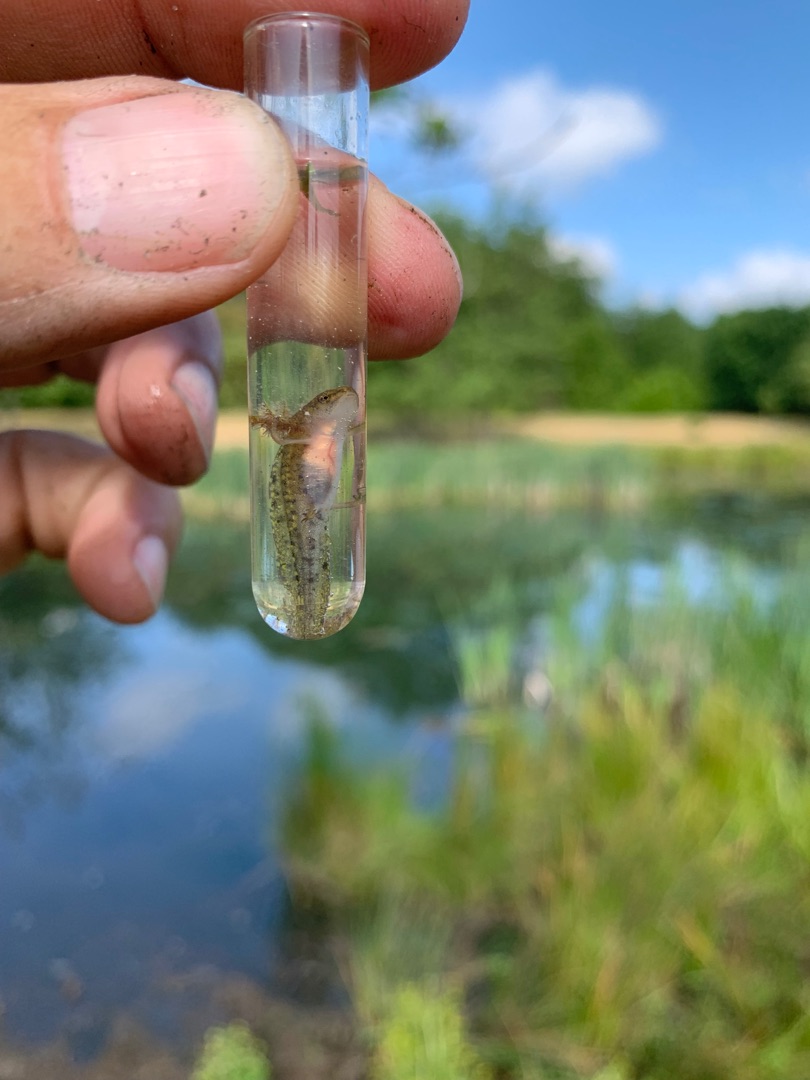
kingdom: Animalia
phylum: Chordata
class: Amphibia
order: Caudata
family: Salamandridae
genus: Triturus
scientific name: Triturus cristatus
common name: Stor vandsalamander
